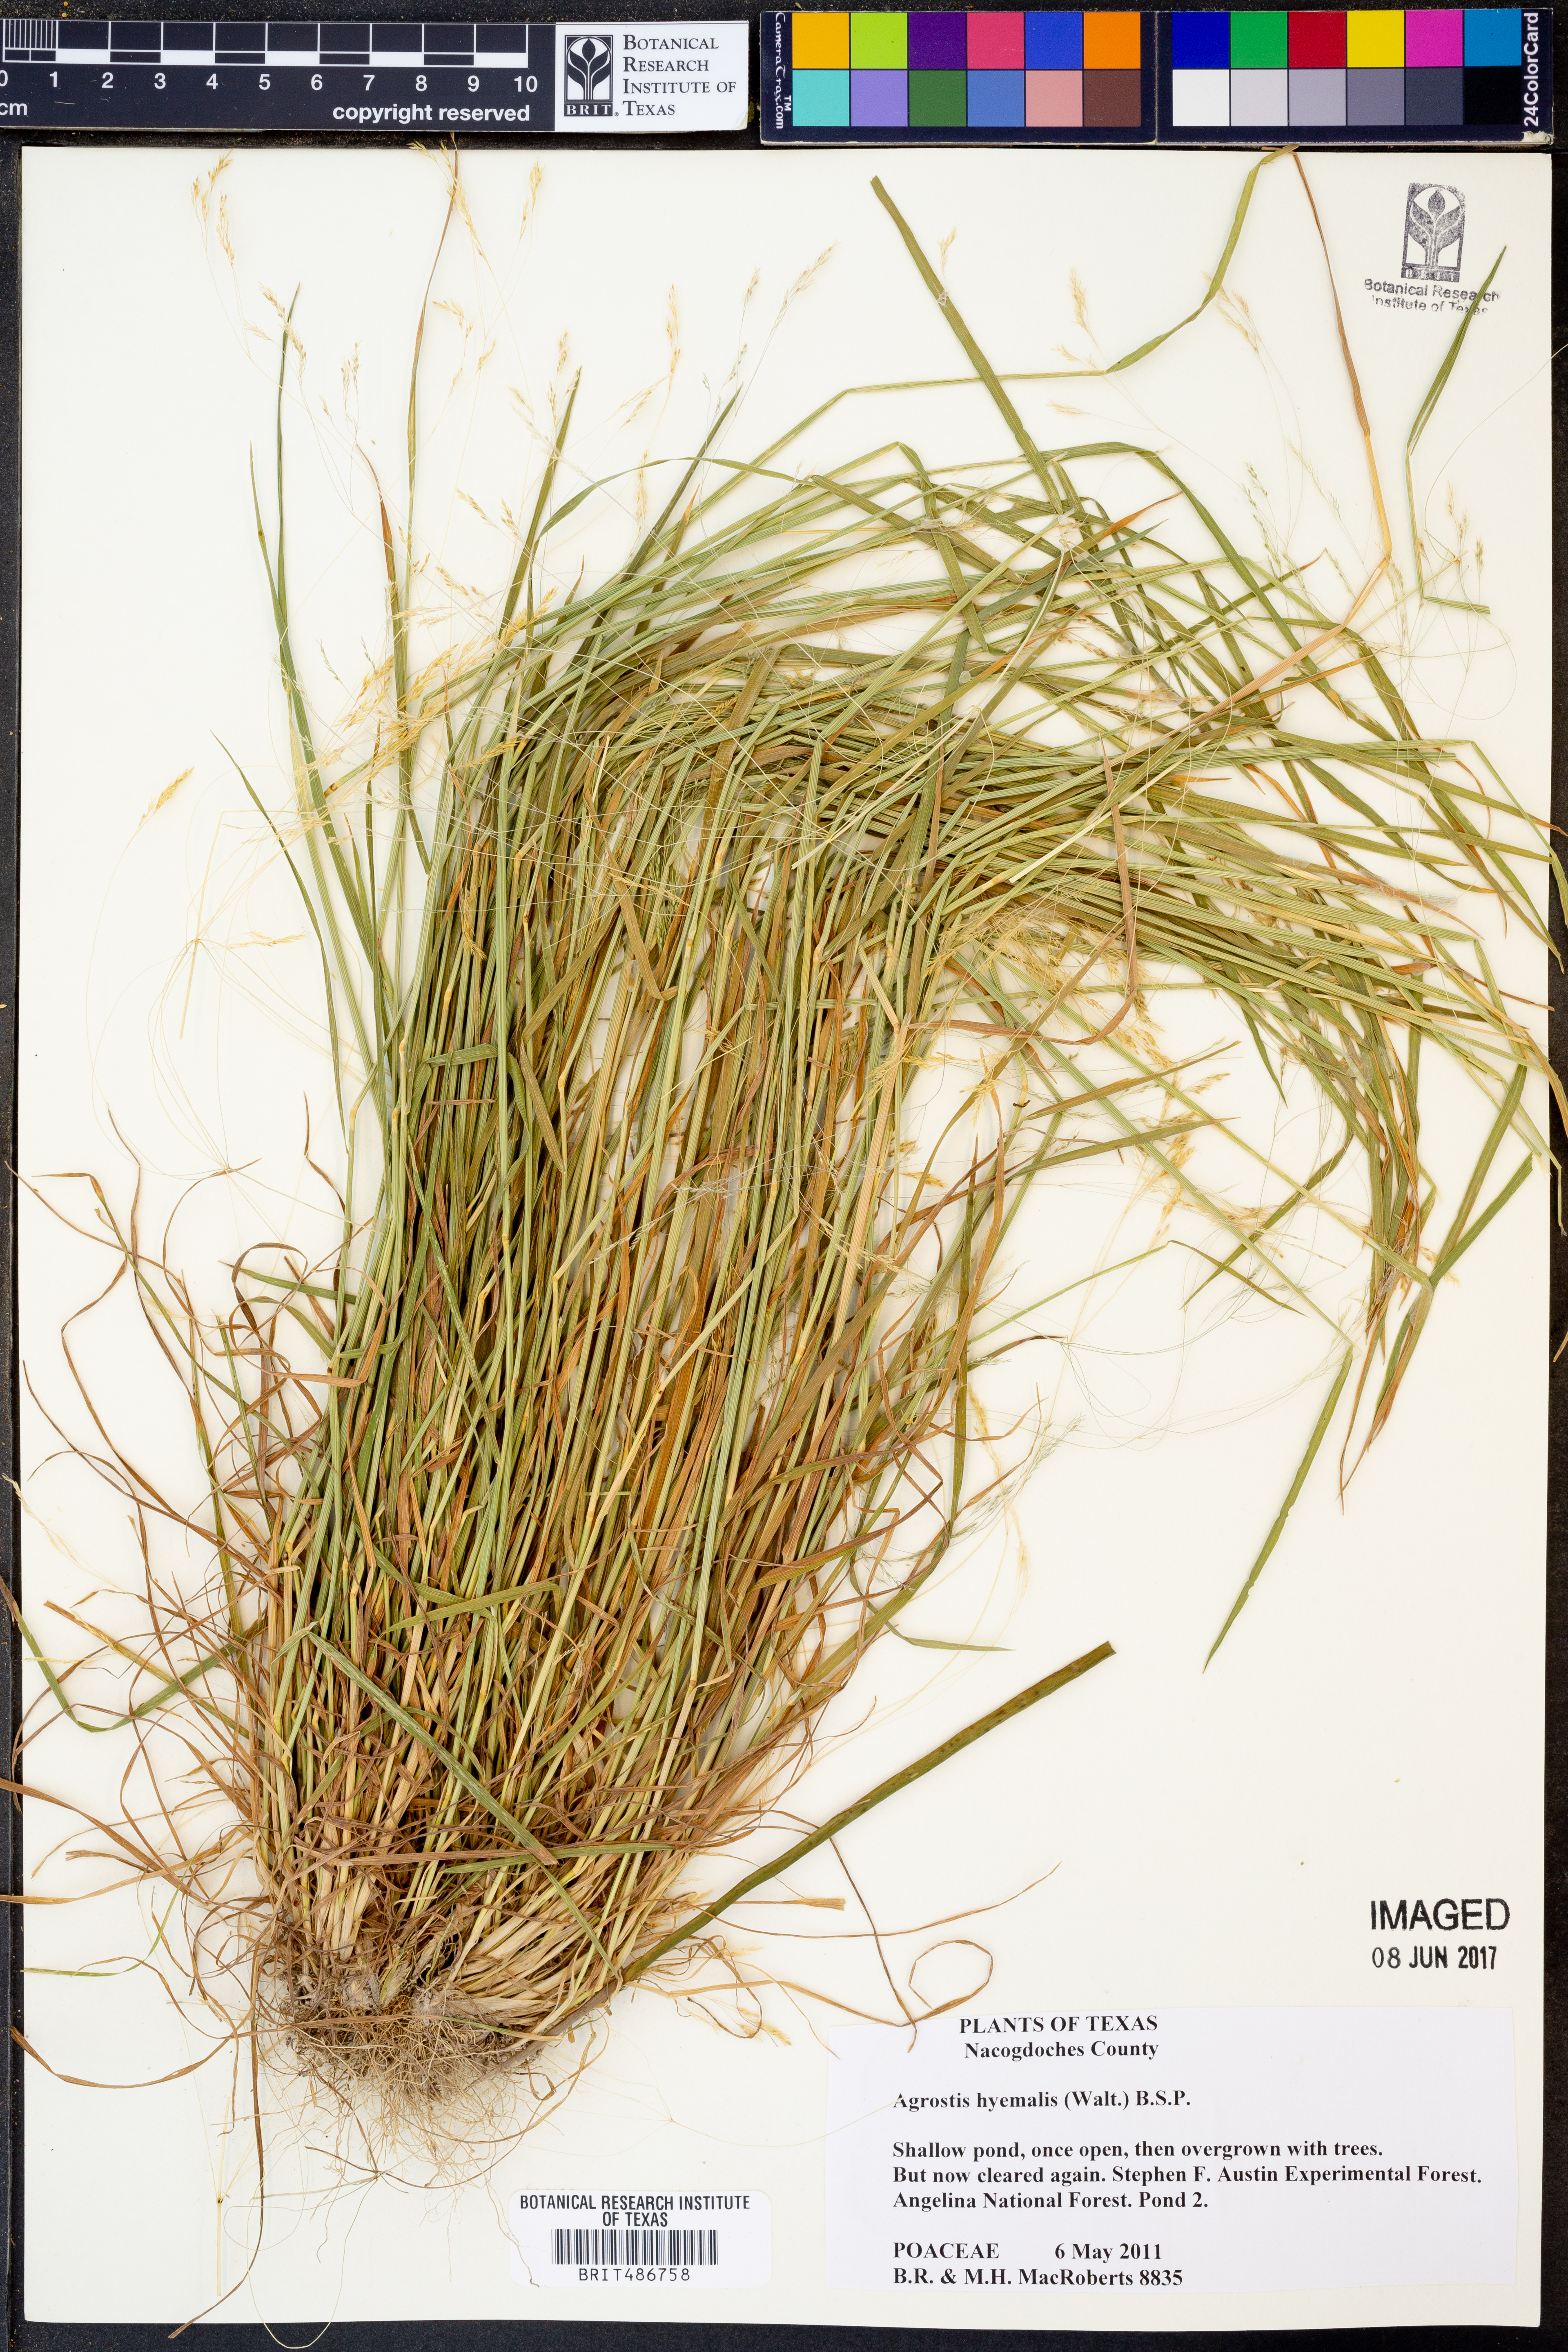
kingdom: Plantae
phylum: Tracheophyta
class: Liliopsida
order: Poales
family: Poaceae
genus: Agrostis
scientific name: Agrostis hyemalis
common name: Small bent
